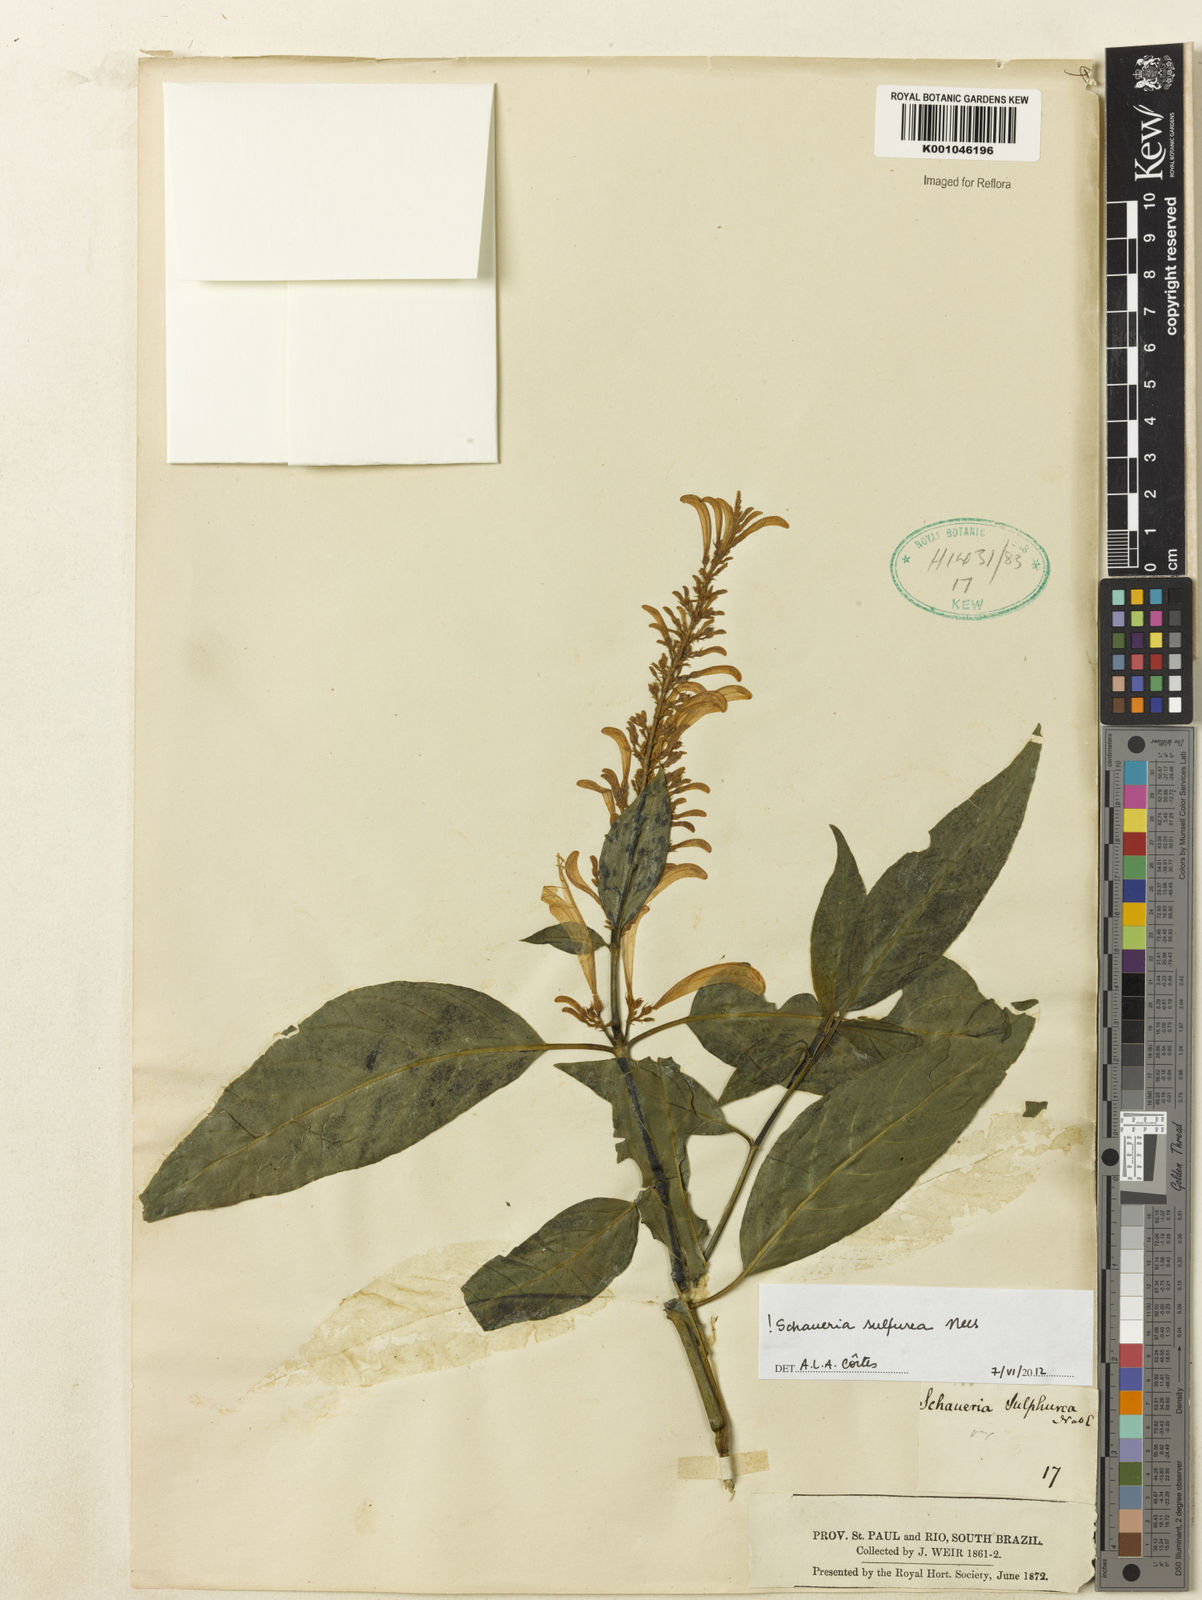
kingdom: Plantae
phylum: Tracheophyta
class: Magnoliopsida
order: Lamiales
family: Acanthaceae
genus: Schaueria
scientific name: Schaueria
